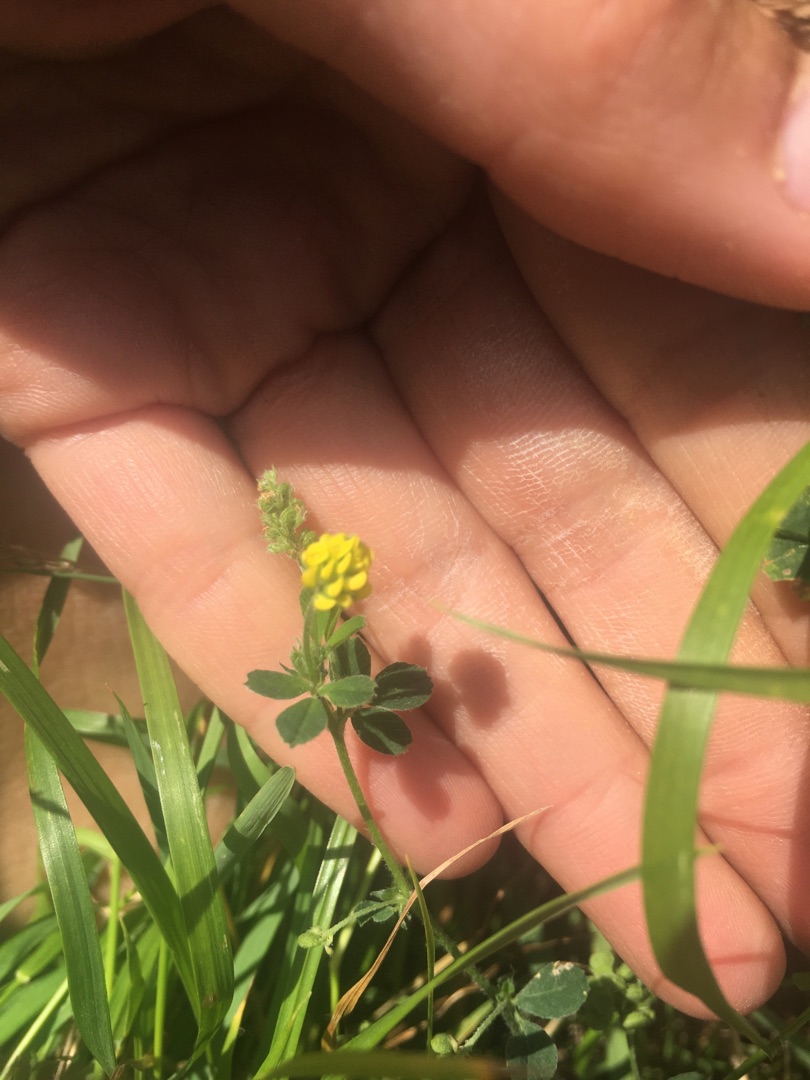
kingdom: Plantae
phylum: Tracheophyta
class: Magnoliopsida
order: Fabales
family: Fabaceae
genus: Medicago
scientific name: Medicago lupulina
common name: Humle-sneglebælg
